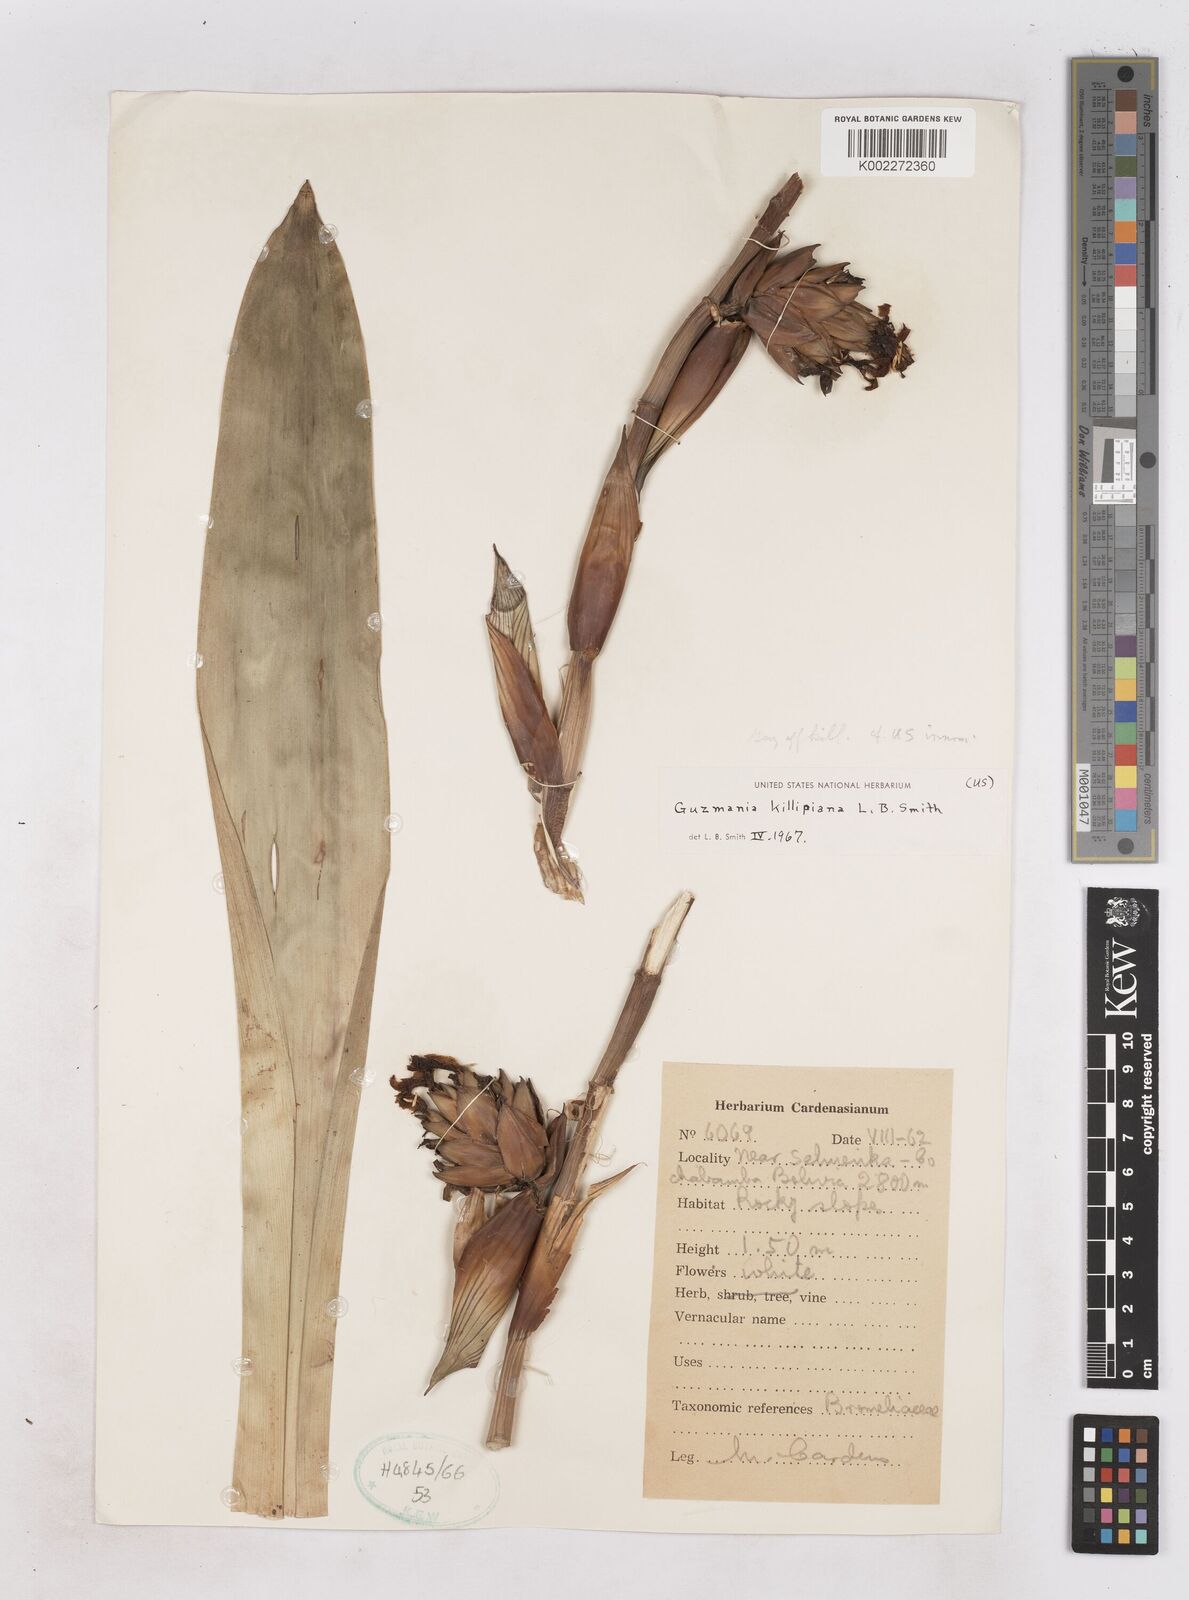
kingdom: Plantae
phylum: Tracheophyta
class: Liliopsida
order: Poales
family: Bromeliaceae
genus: Guzmania
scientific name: Guzmania killipiana
